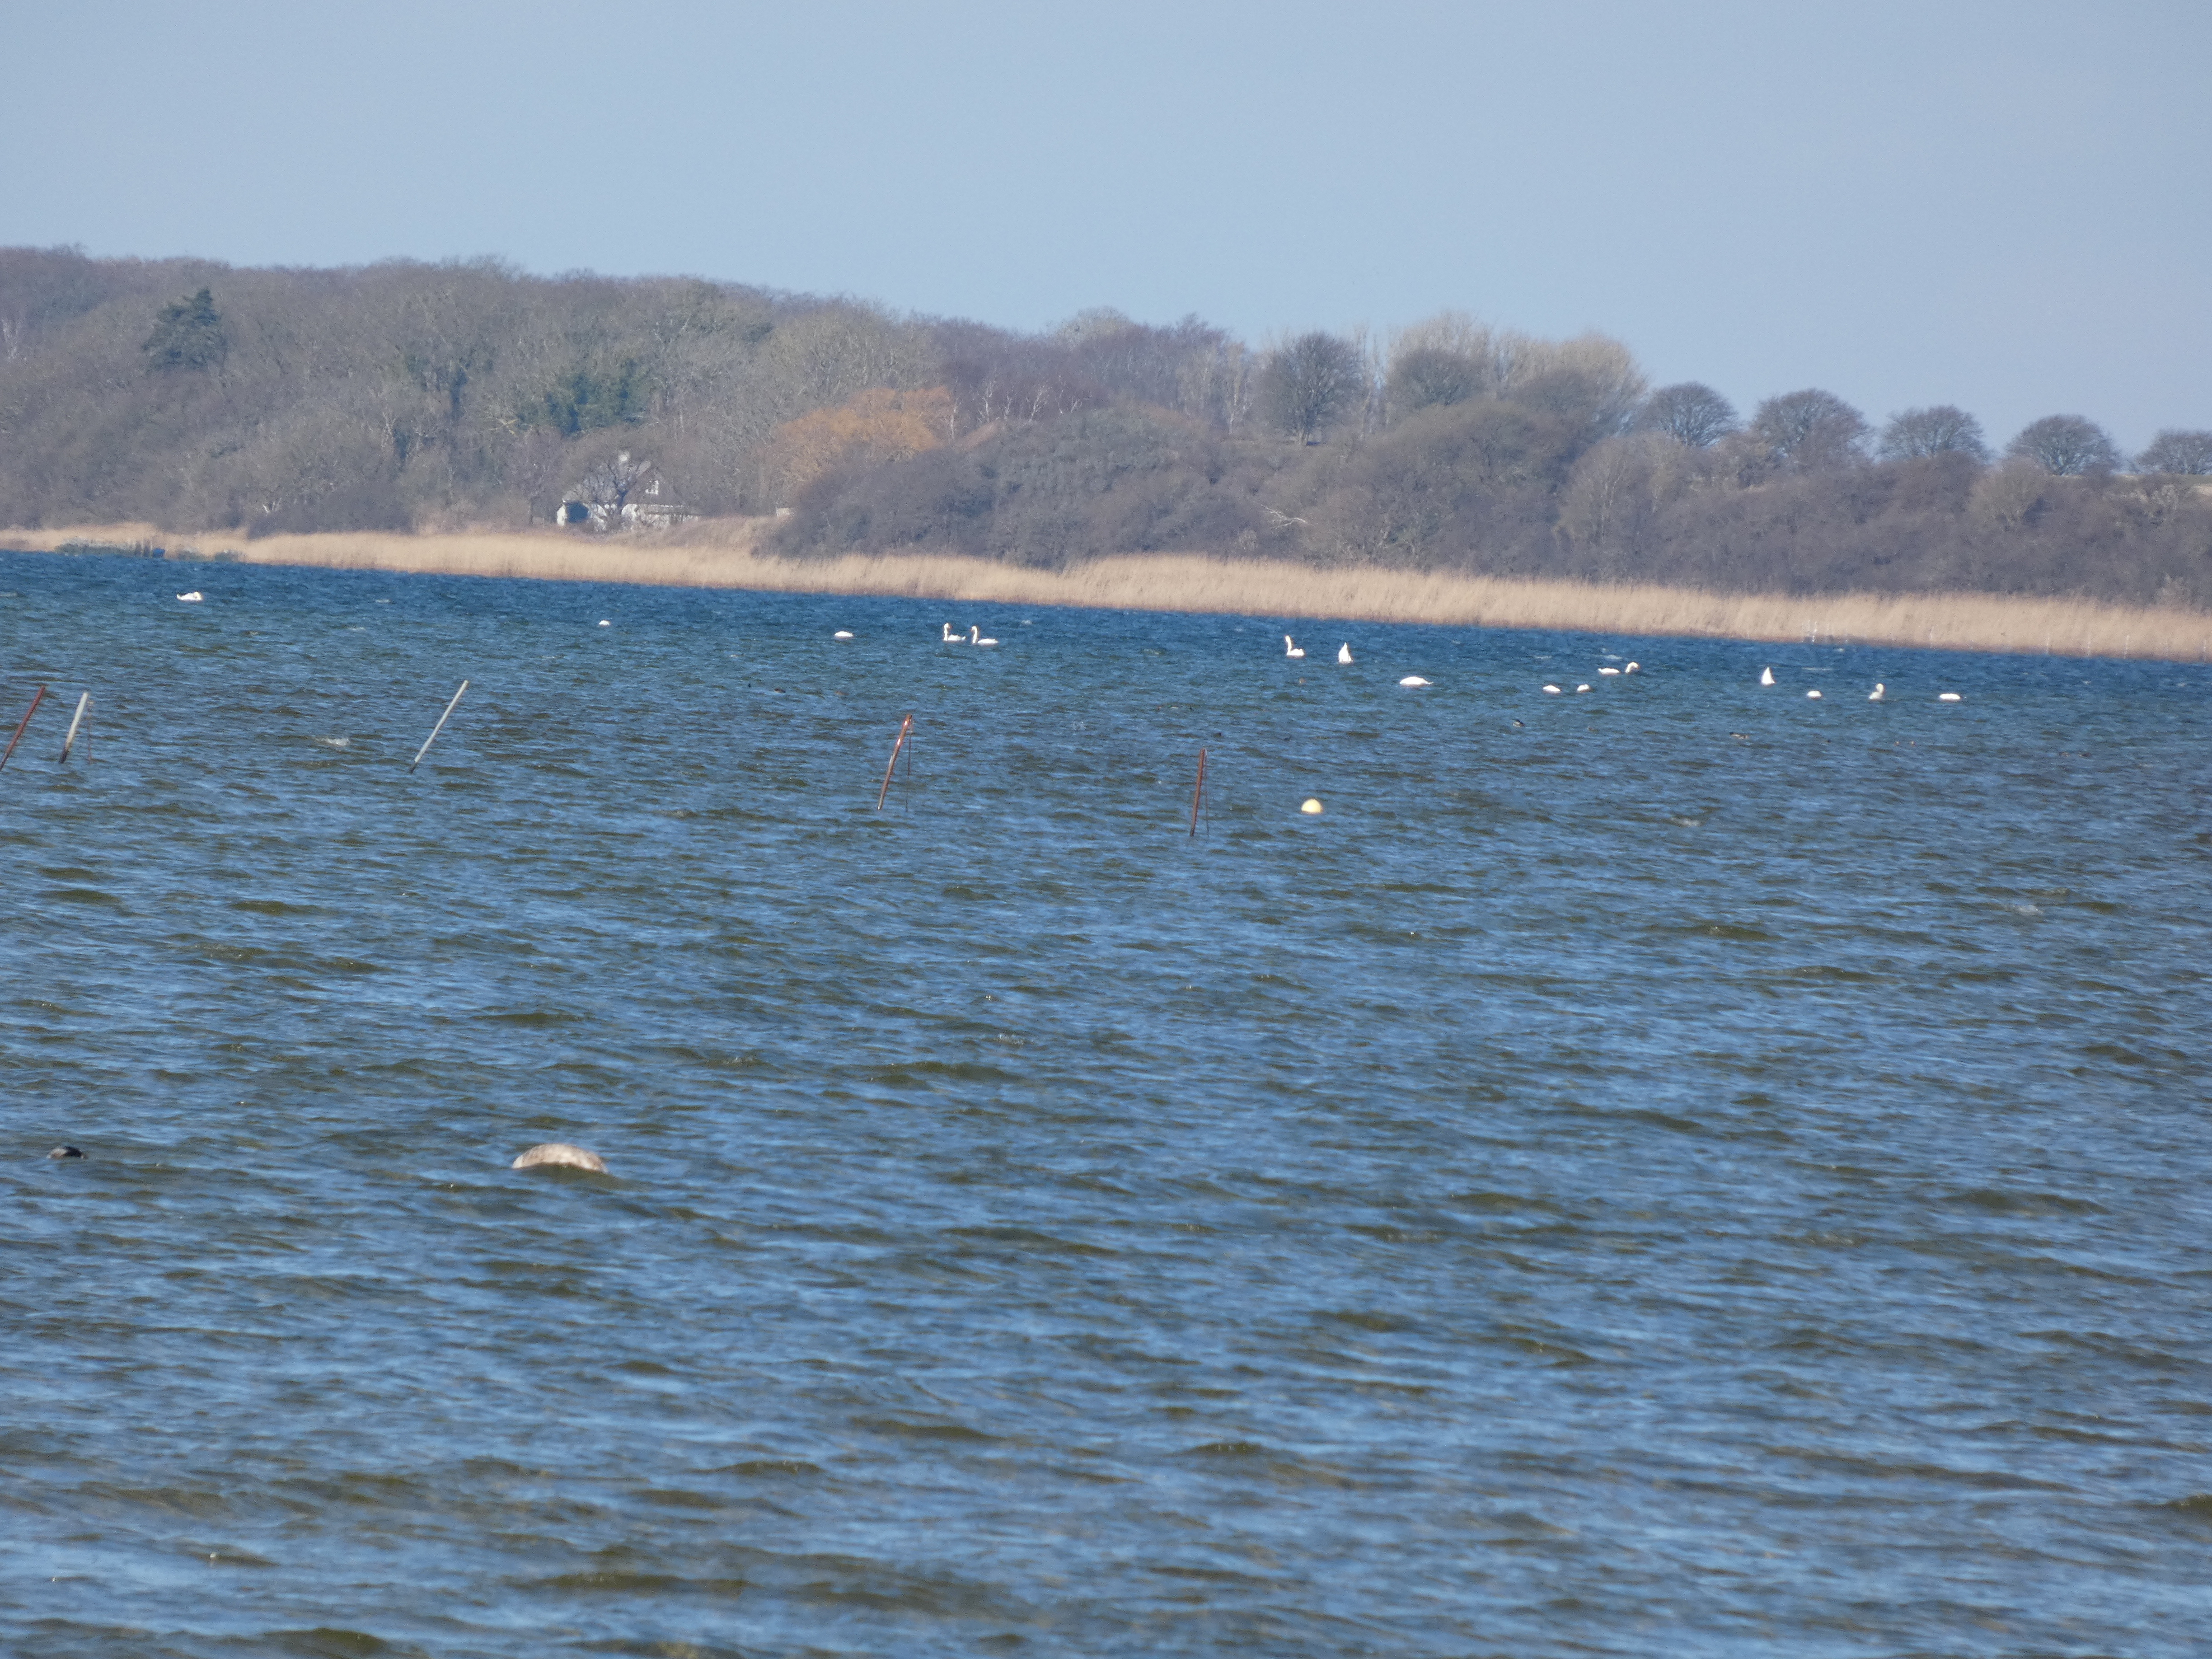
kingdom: Animalia
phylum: Chordata
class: Aves
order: Anseriformes
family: Anatidae
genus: Cygnus
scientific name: Cygnus olor
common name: Knopsvane
